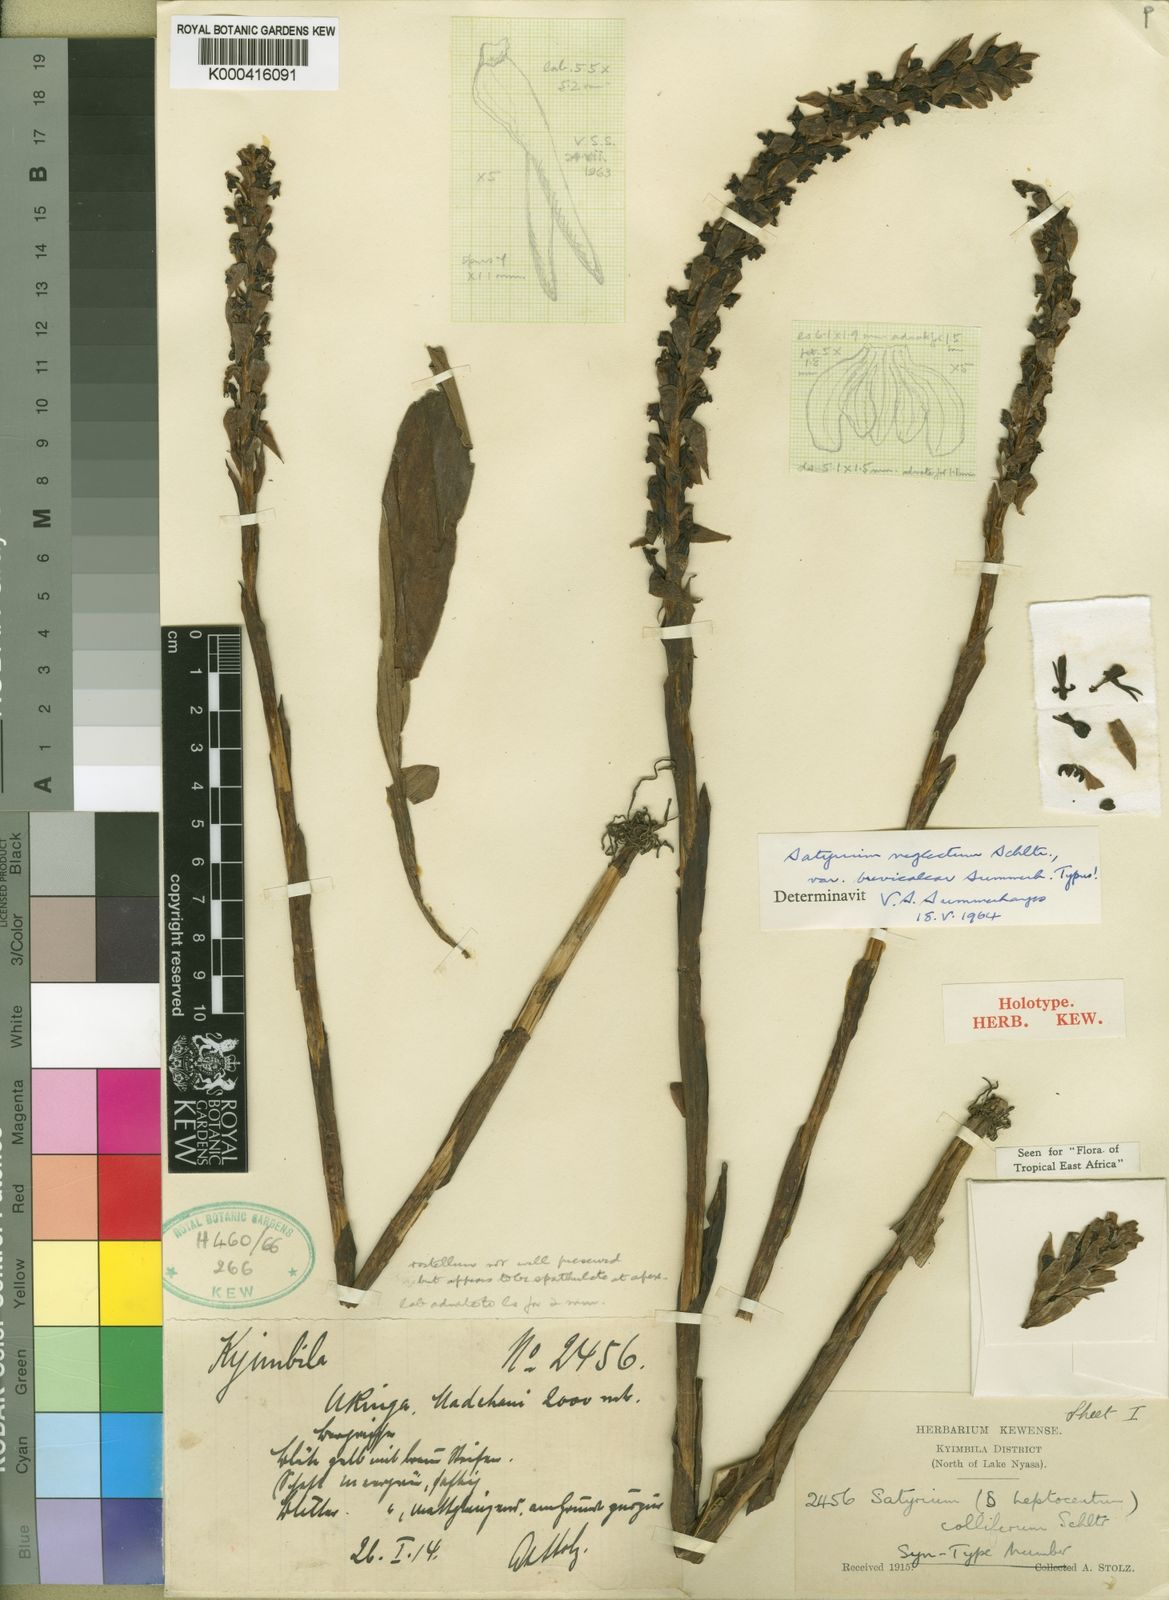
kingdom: Plantae
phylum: Tracheophyta
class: Liliopsida
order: Asparagales
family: Orchidaceae
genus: Satyrium
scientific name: Satyrium neglectum
